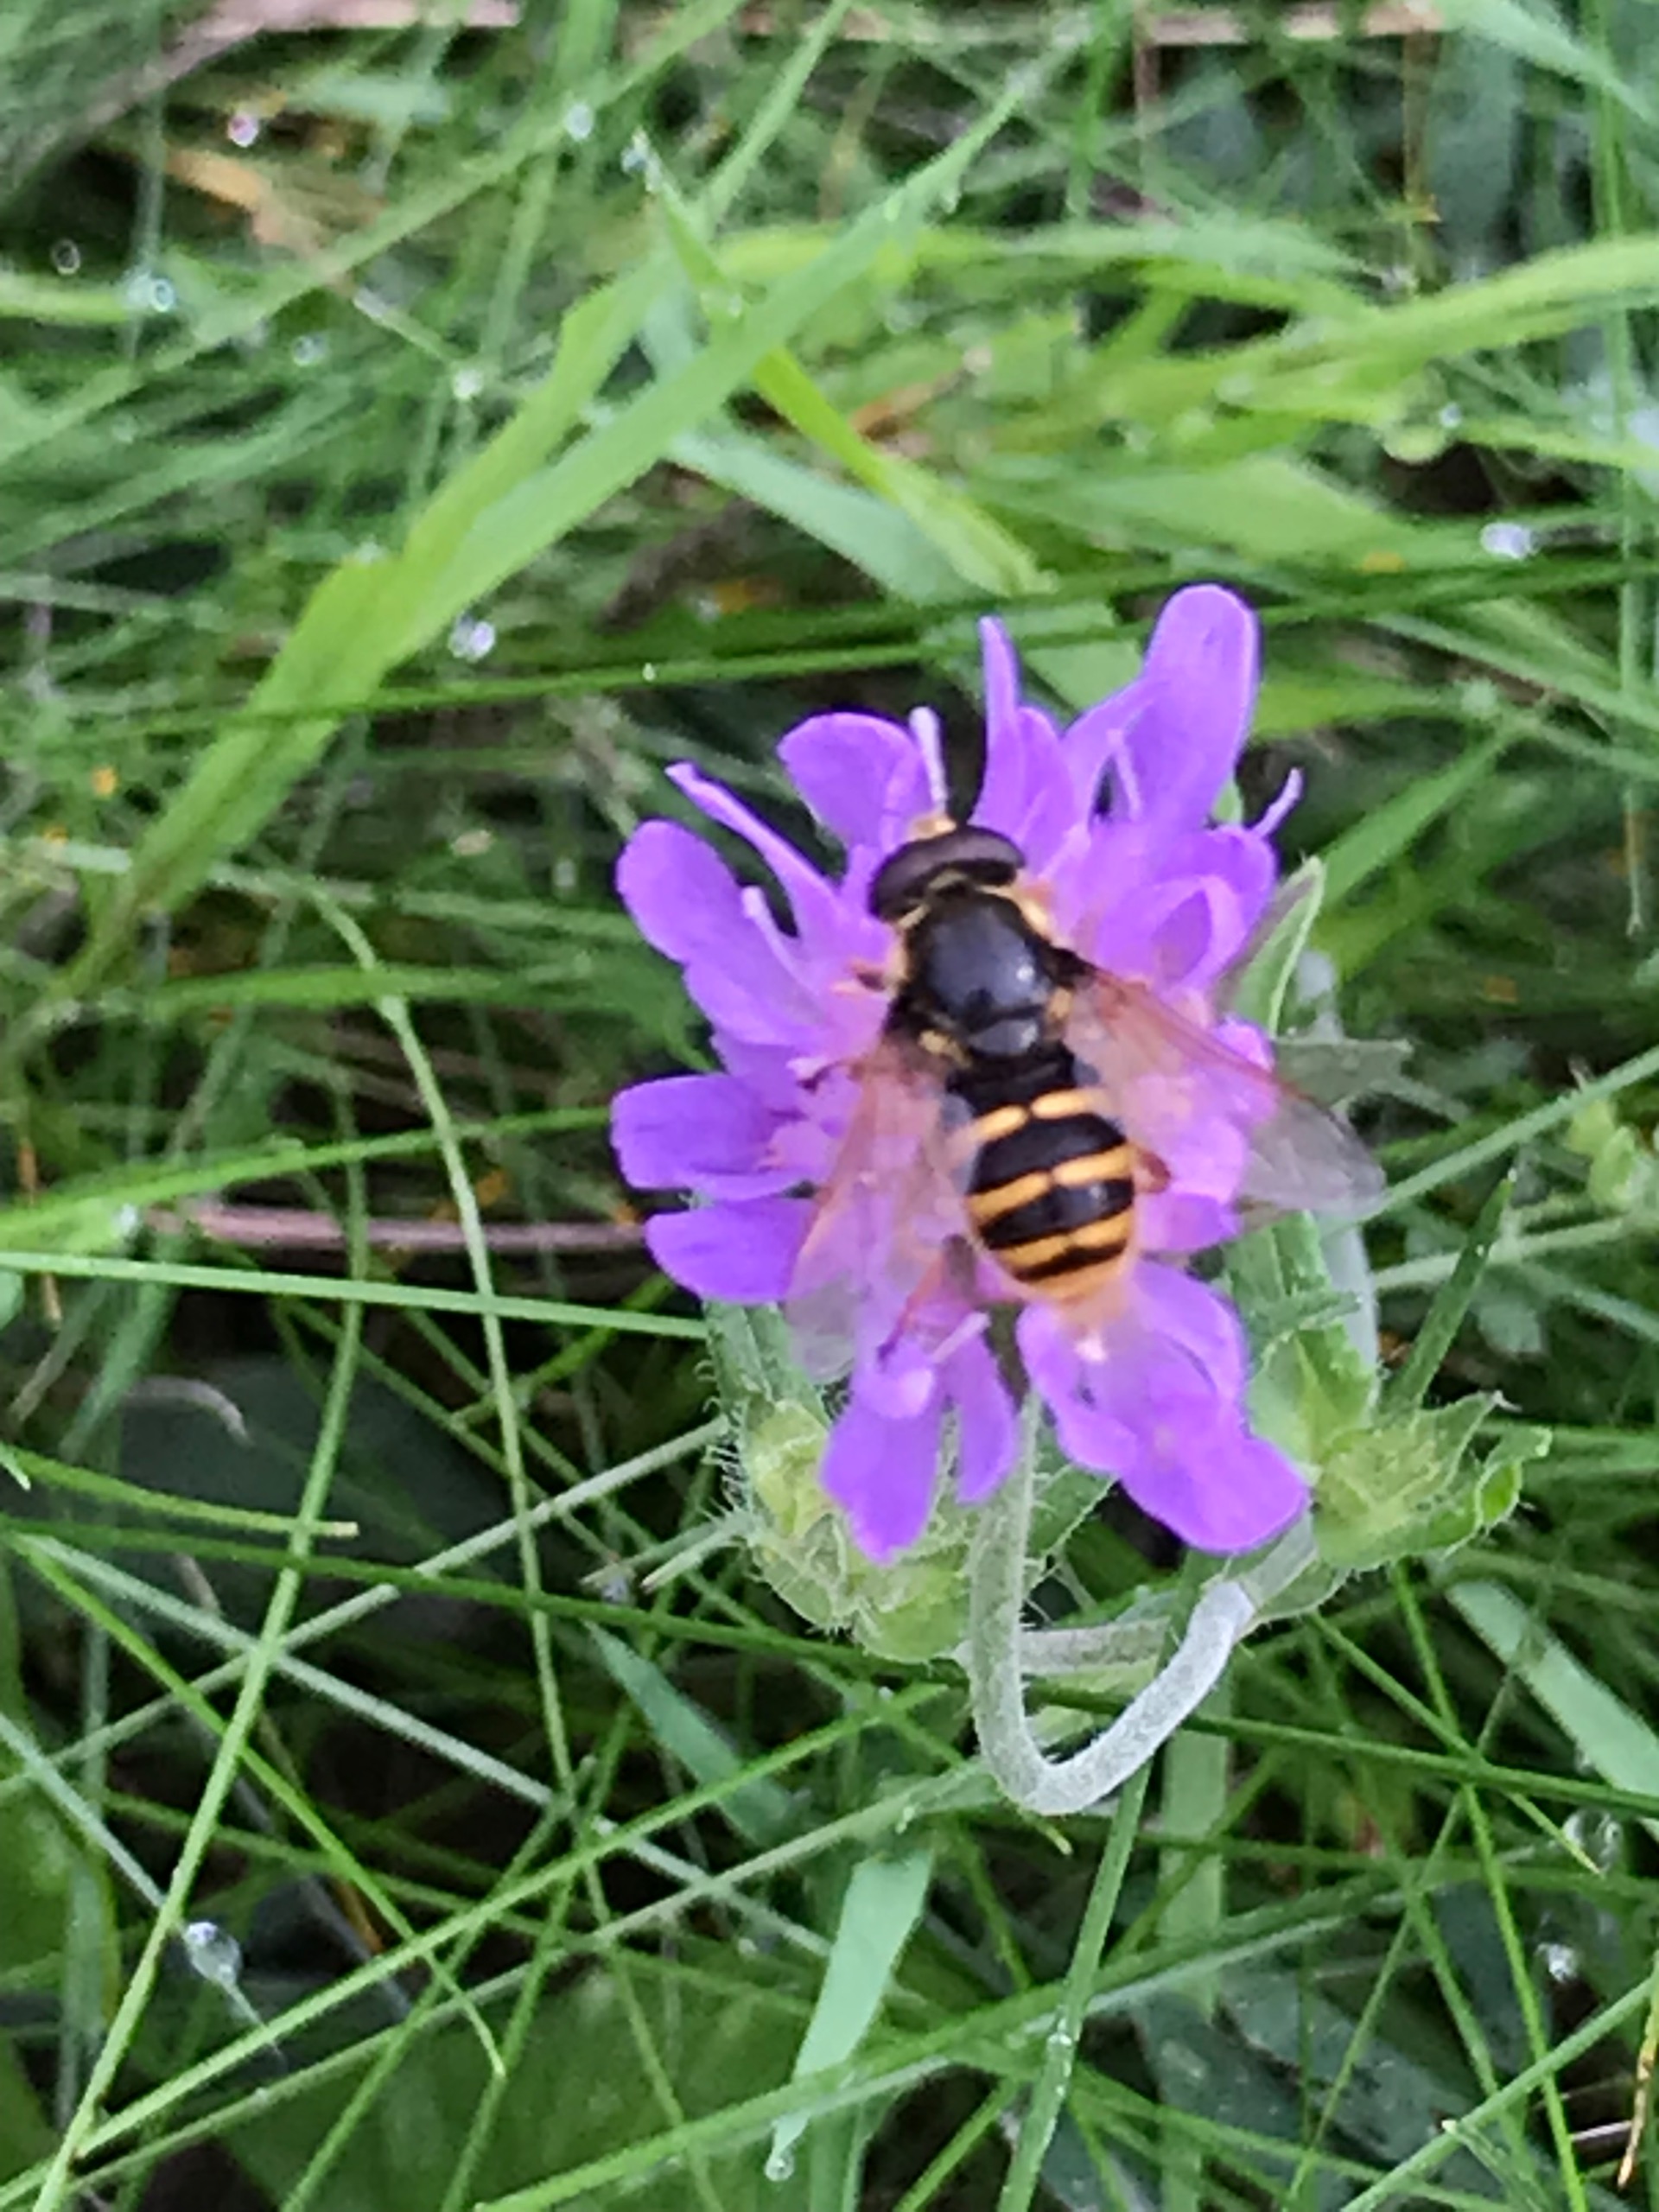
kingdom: Animalia
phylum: Arthropoda
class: Insecta
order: Diptera
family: Syrphidae
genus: Sericomyia
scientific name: Sericomyia silentis
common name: Tørve-silkesvirreflue
